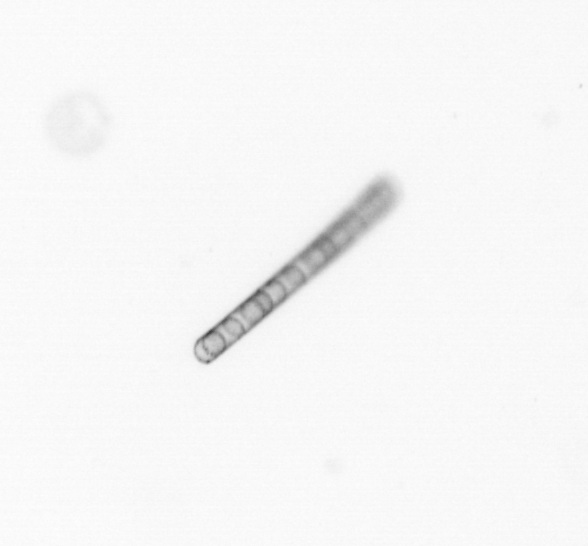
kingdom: Chromista
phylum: Ochrophyta
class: Bacillariophyceae
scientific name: Bacillariophyceae
